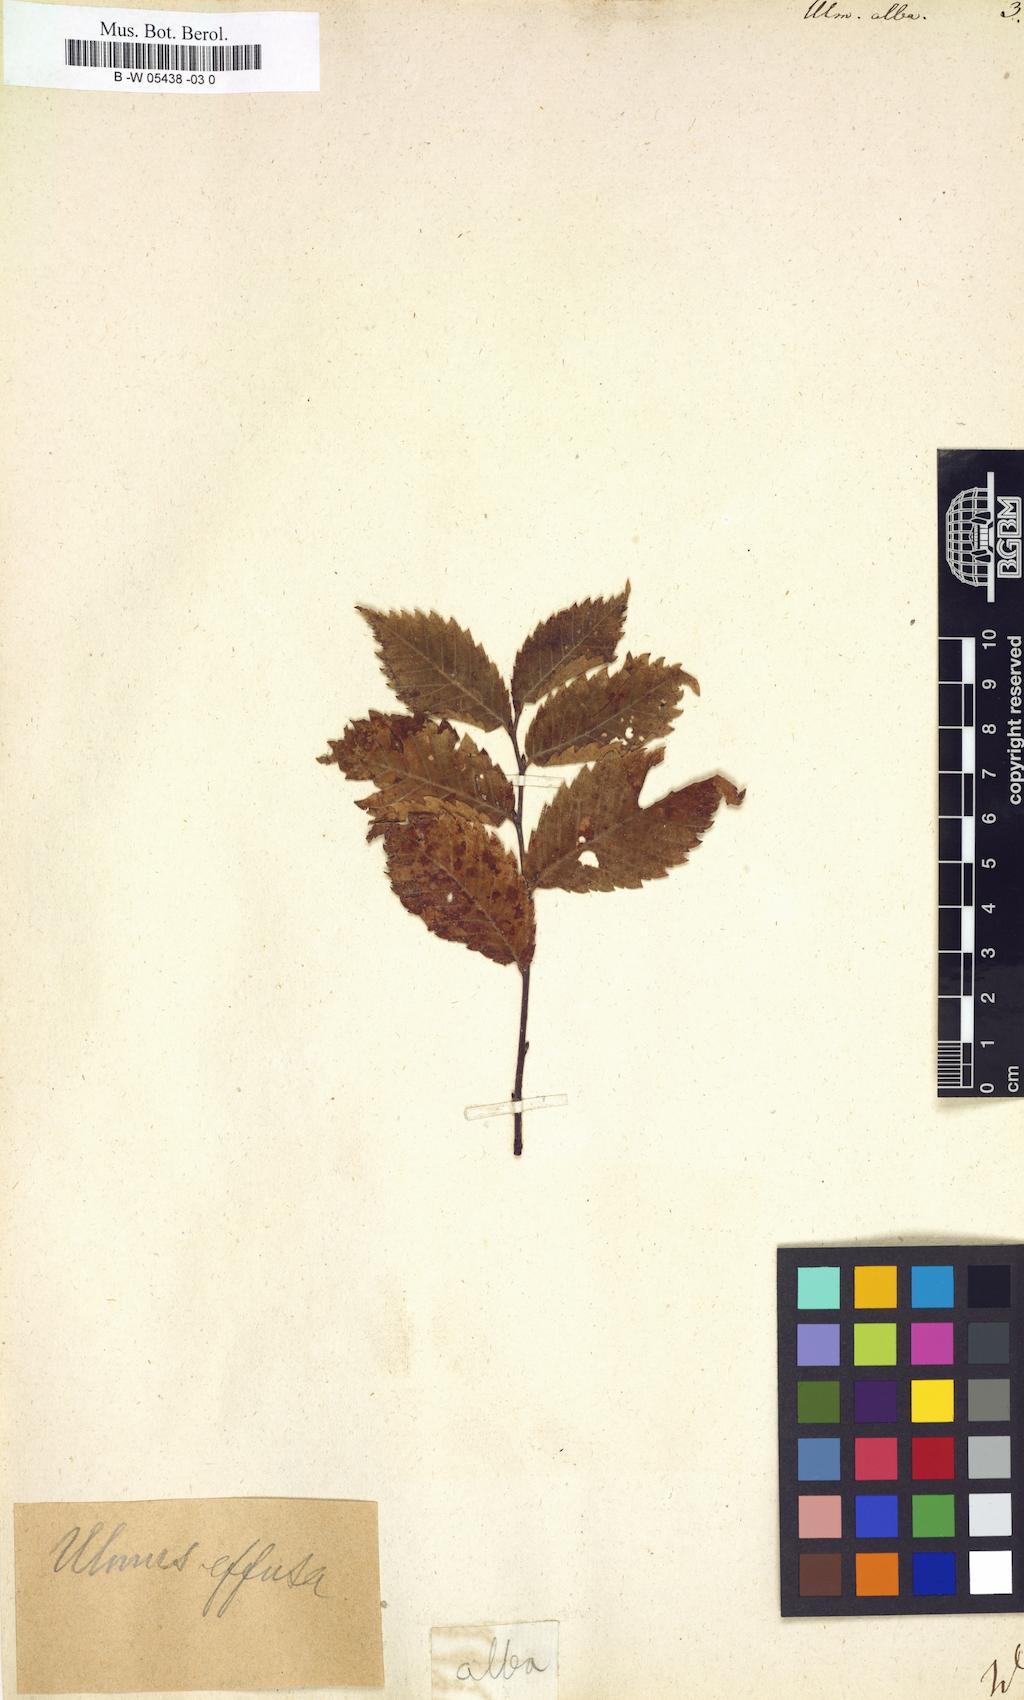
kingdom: Plantae
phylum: Tracheophyta
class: Magnoliopsida
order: Rosales
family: Ulmaceae
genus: Ulmus
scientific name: Ulmus
